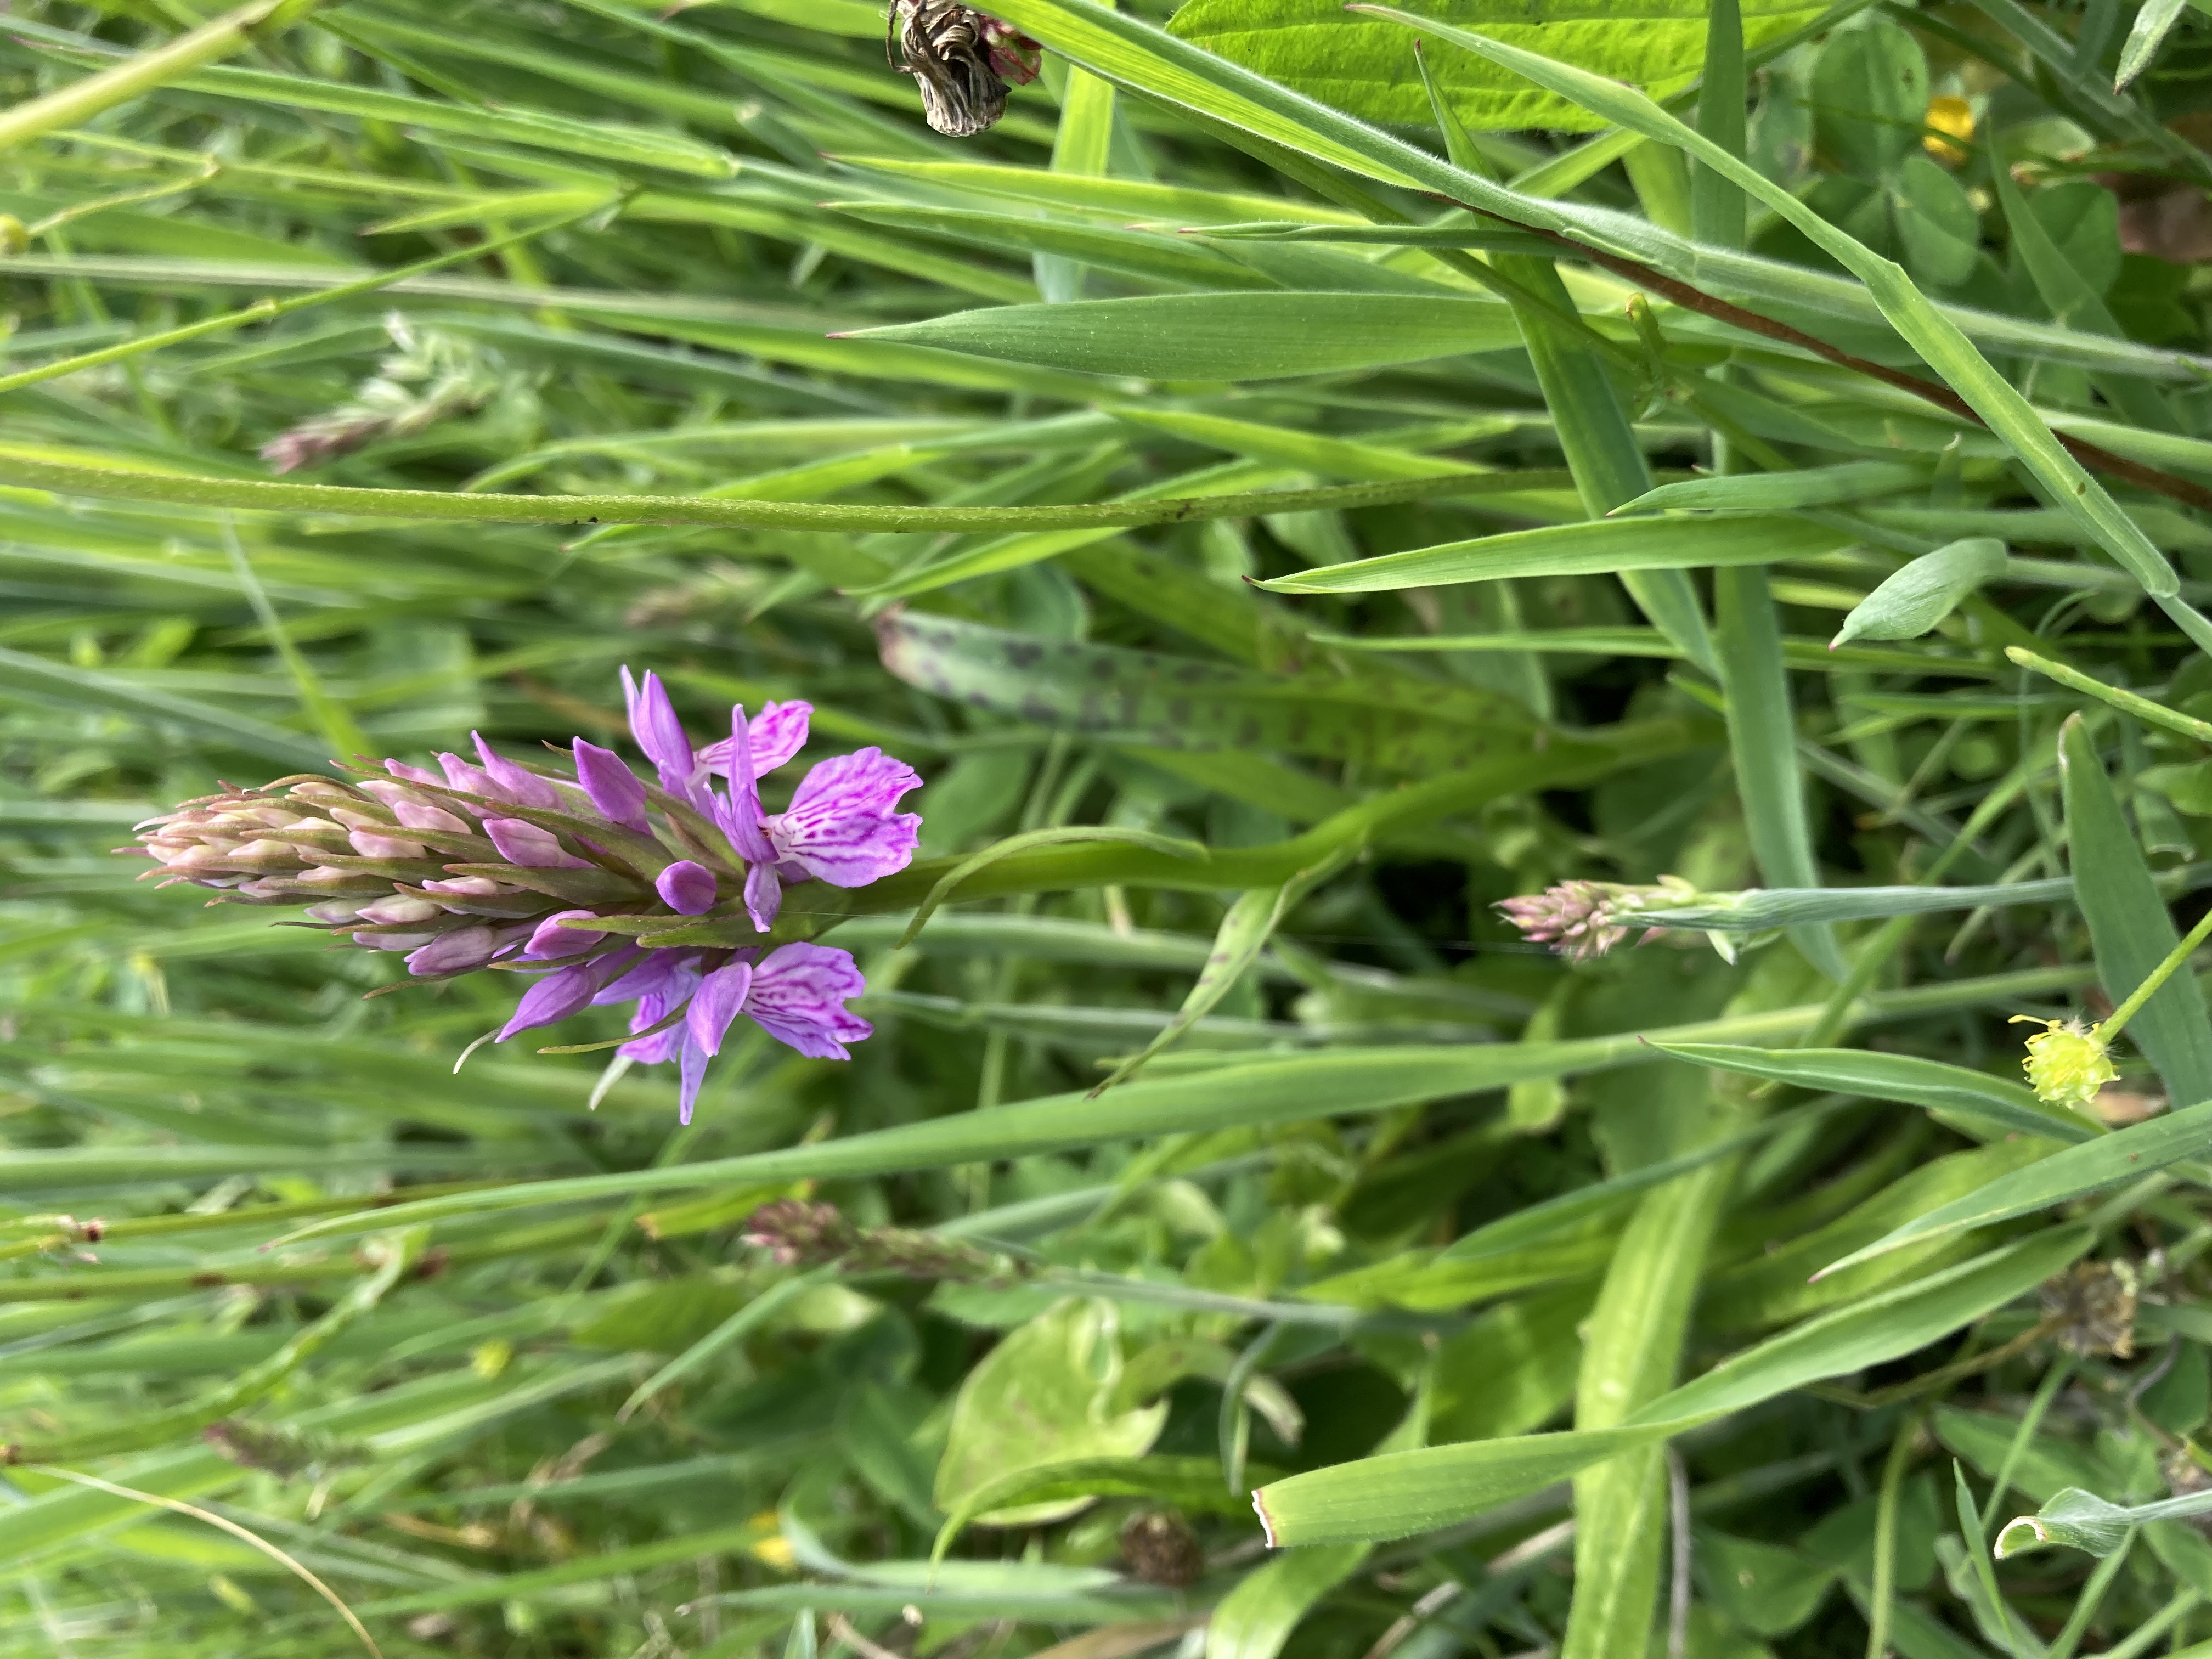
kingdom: Plantae
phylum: Tracheophyta
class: Liliopsida
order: Asparagales
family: Orchidaceae
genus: Dactylorhiza
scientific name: Dactylorhiza maculata
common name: Plettet gøgeurt
